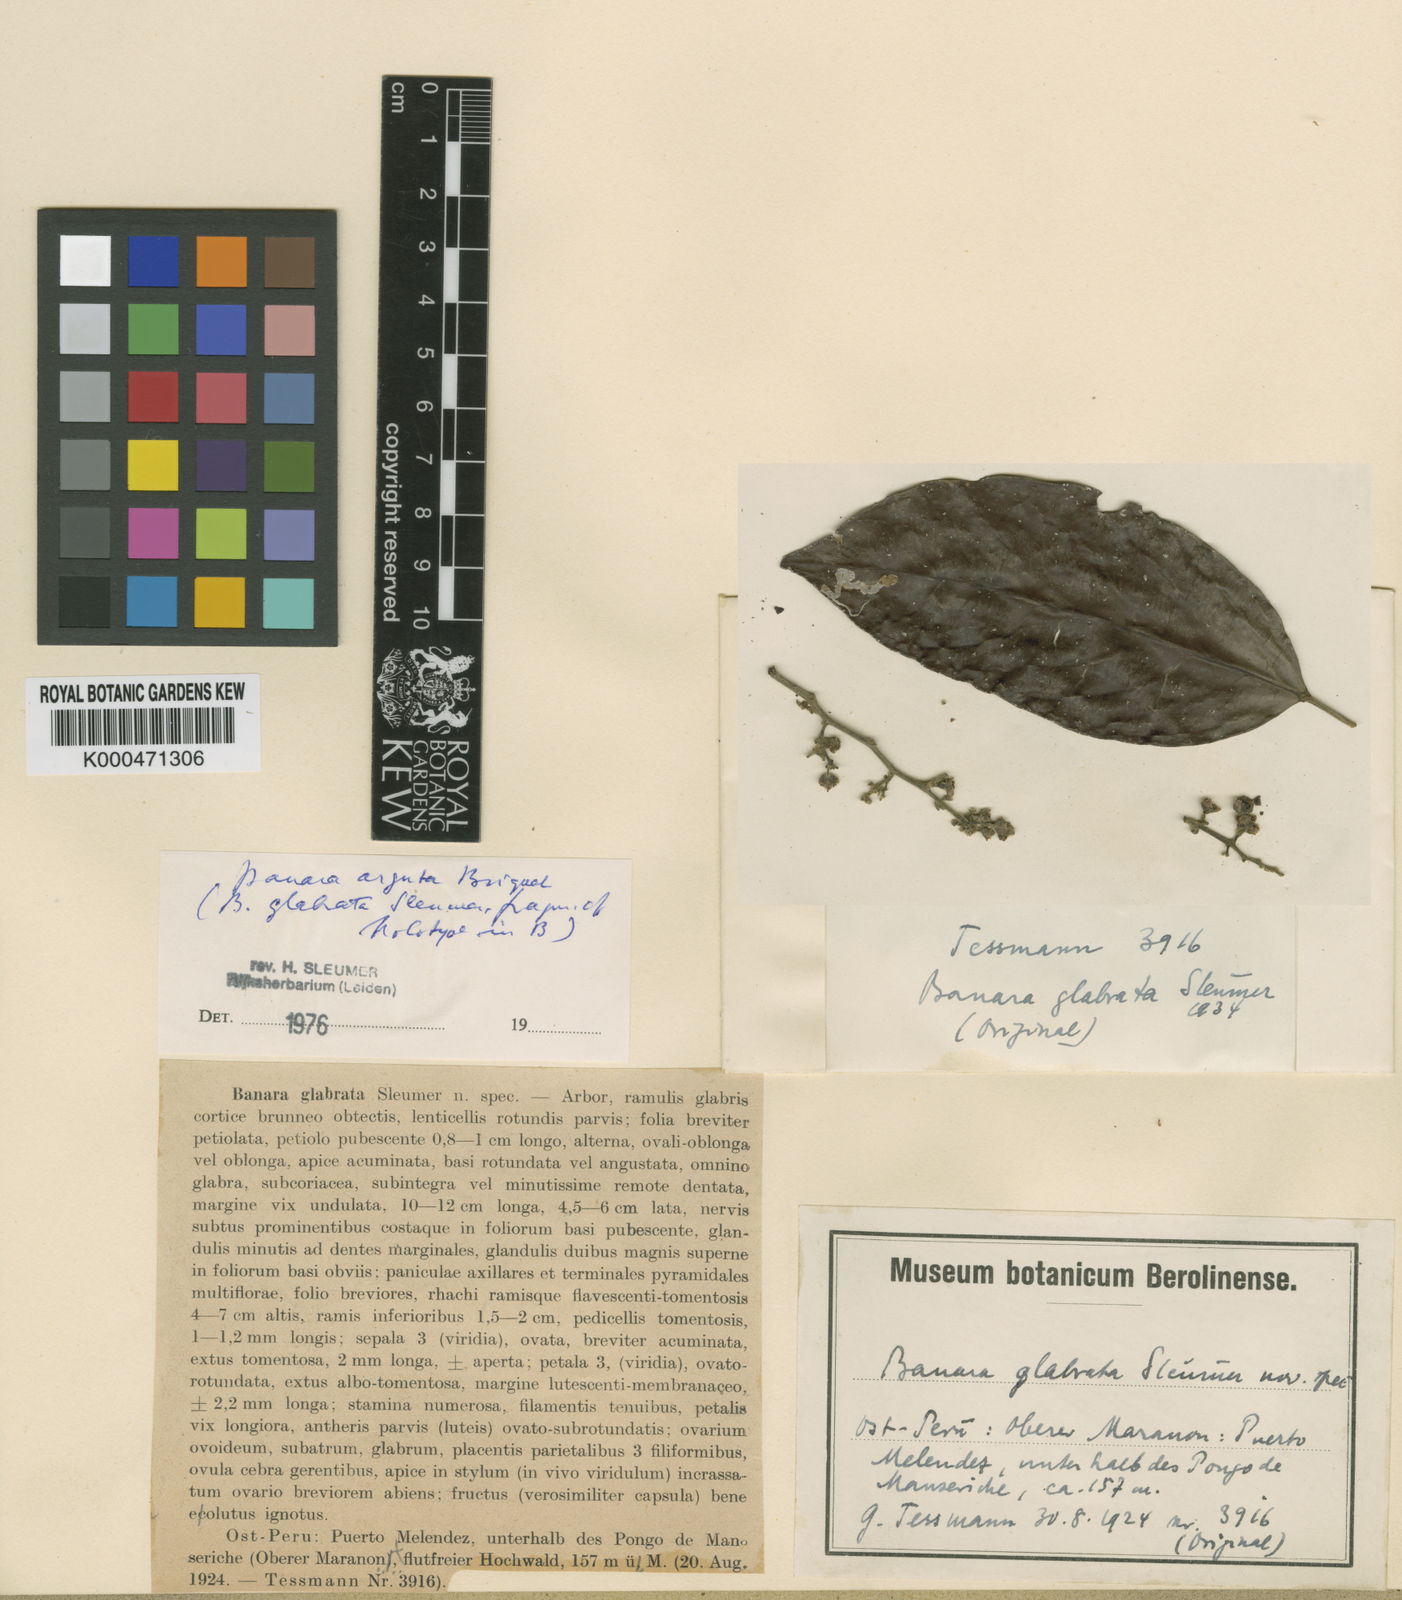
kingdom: Plantae
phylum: Tracheophyta
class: Magnoliopsida
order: Malpighiales
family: Salicaceae
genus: Banara
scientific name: Banara arguta
